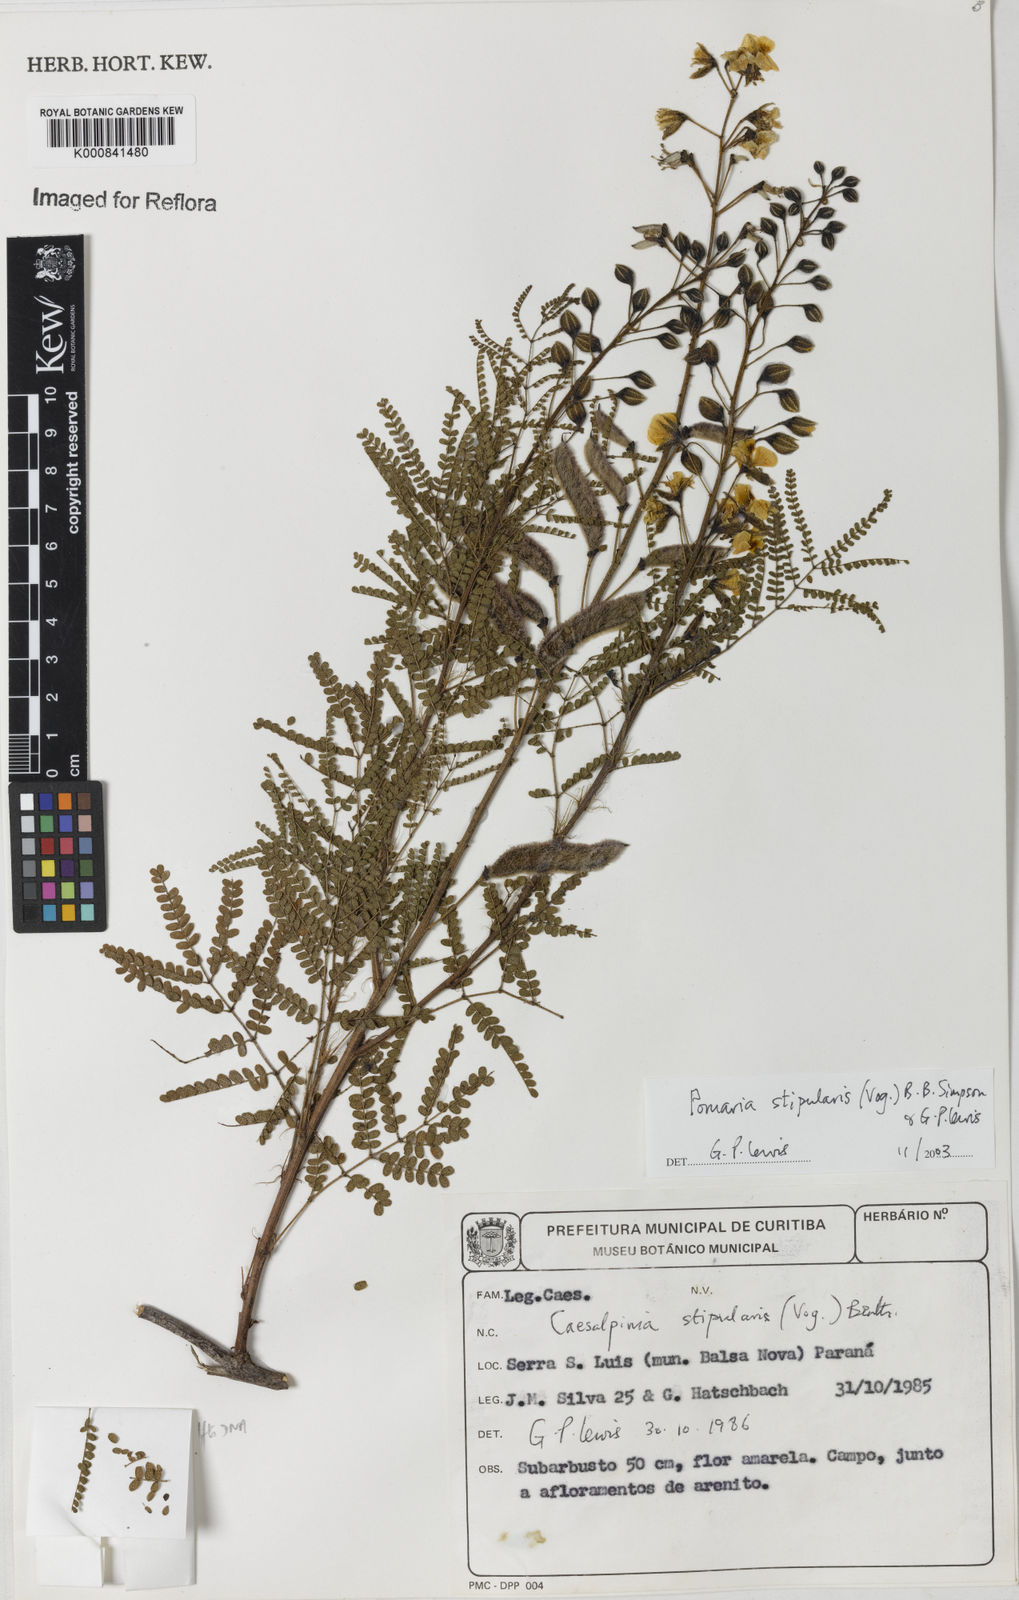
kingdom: Plantae
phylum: Tracheophyta
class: Magnoliopsida
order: Fabales
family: Fabaceae
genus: Pomaria
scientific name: Pomaria stipularis
